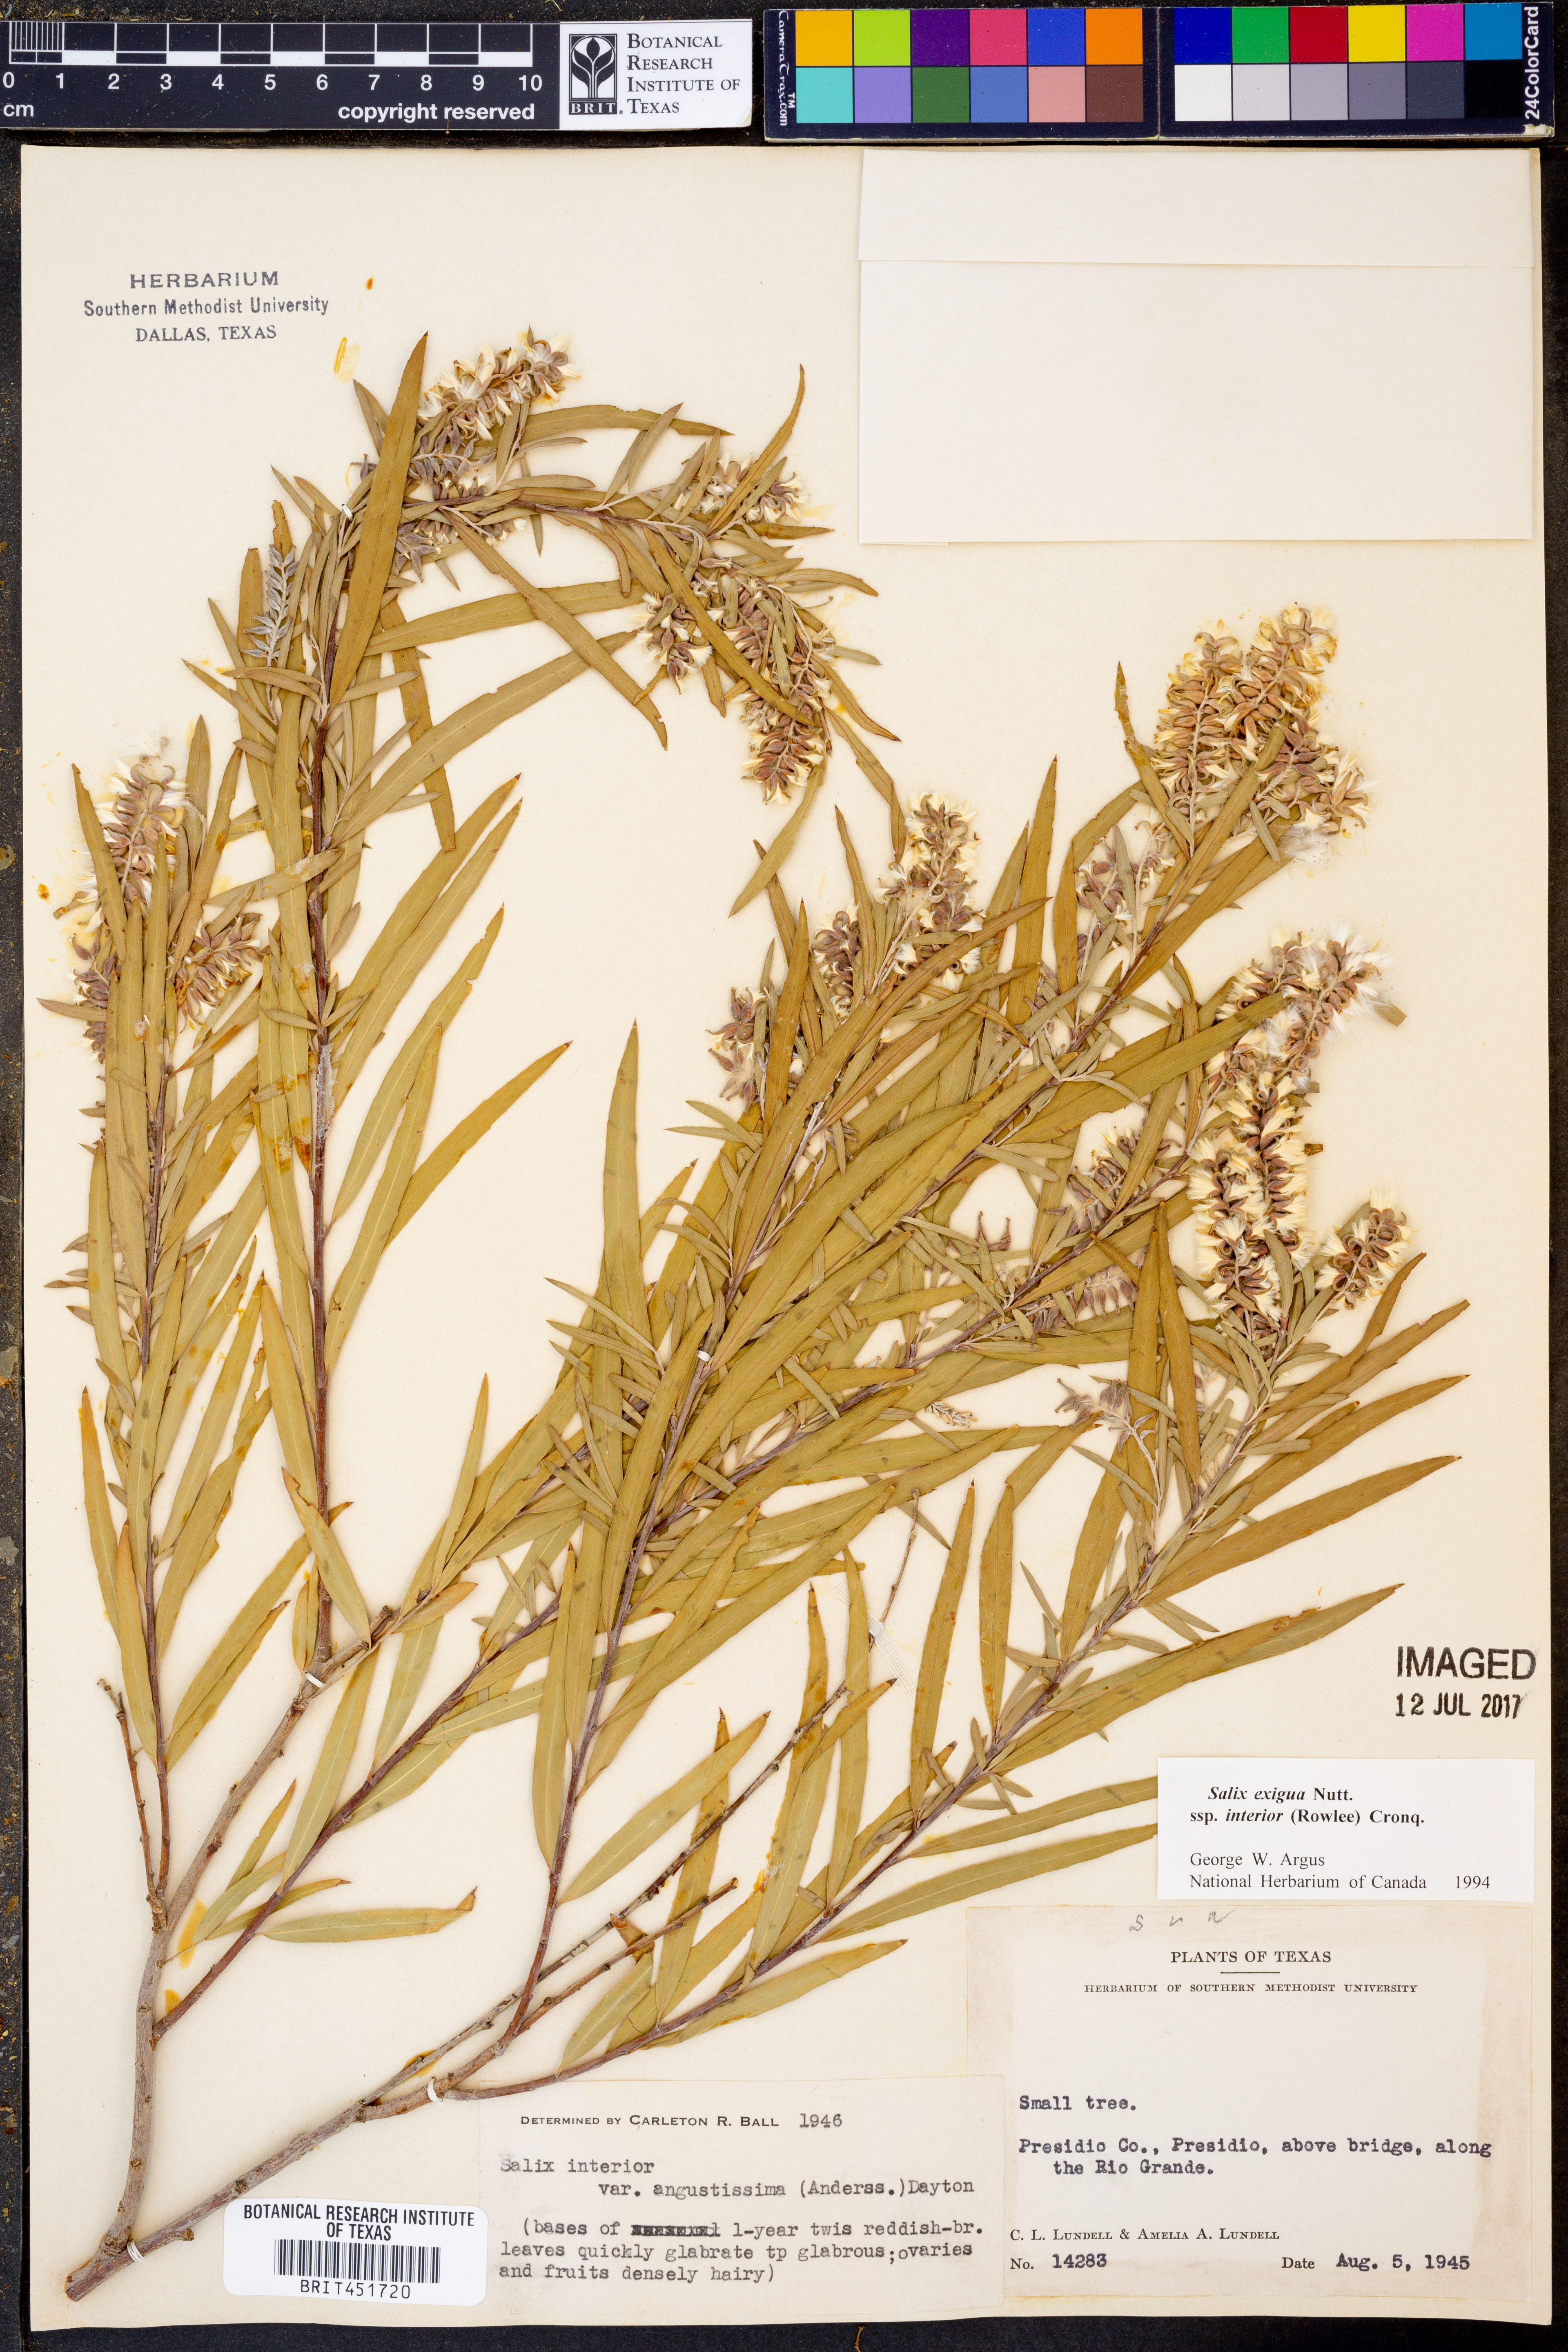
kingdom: Plantae
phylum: Tracheophyta
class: Magnoliopsida
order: Malpighiales
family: Salicaceae
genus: Salix
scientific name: Salix interior
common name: Sandbar willow
